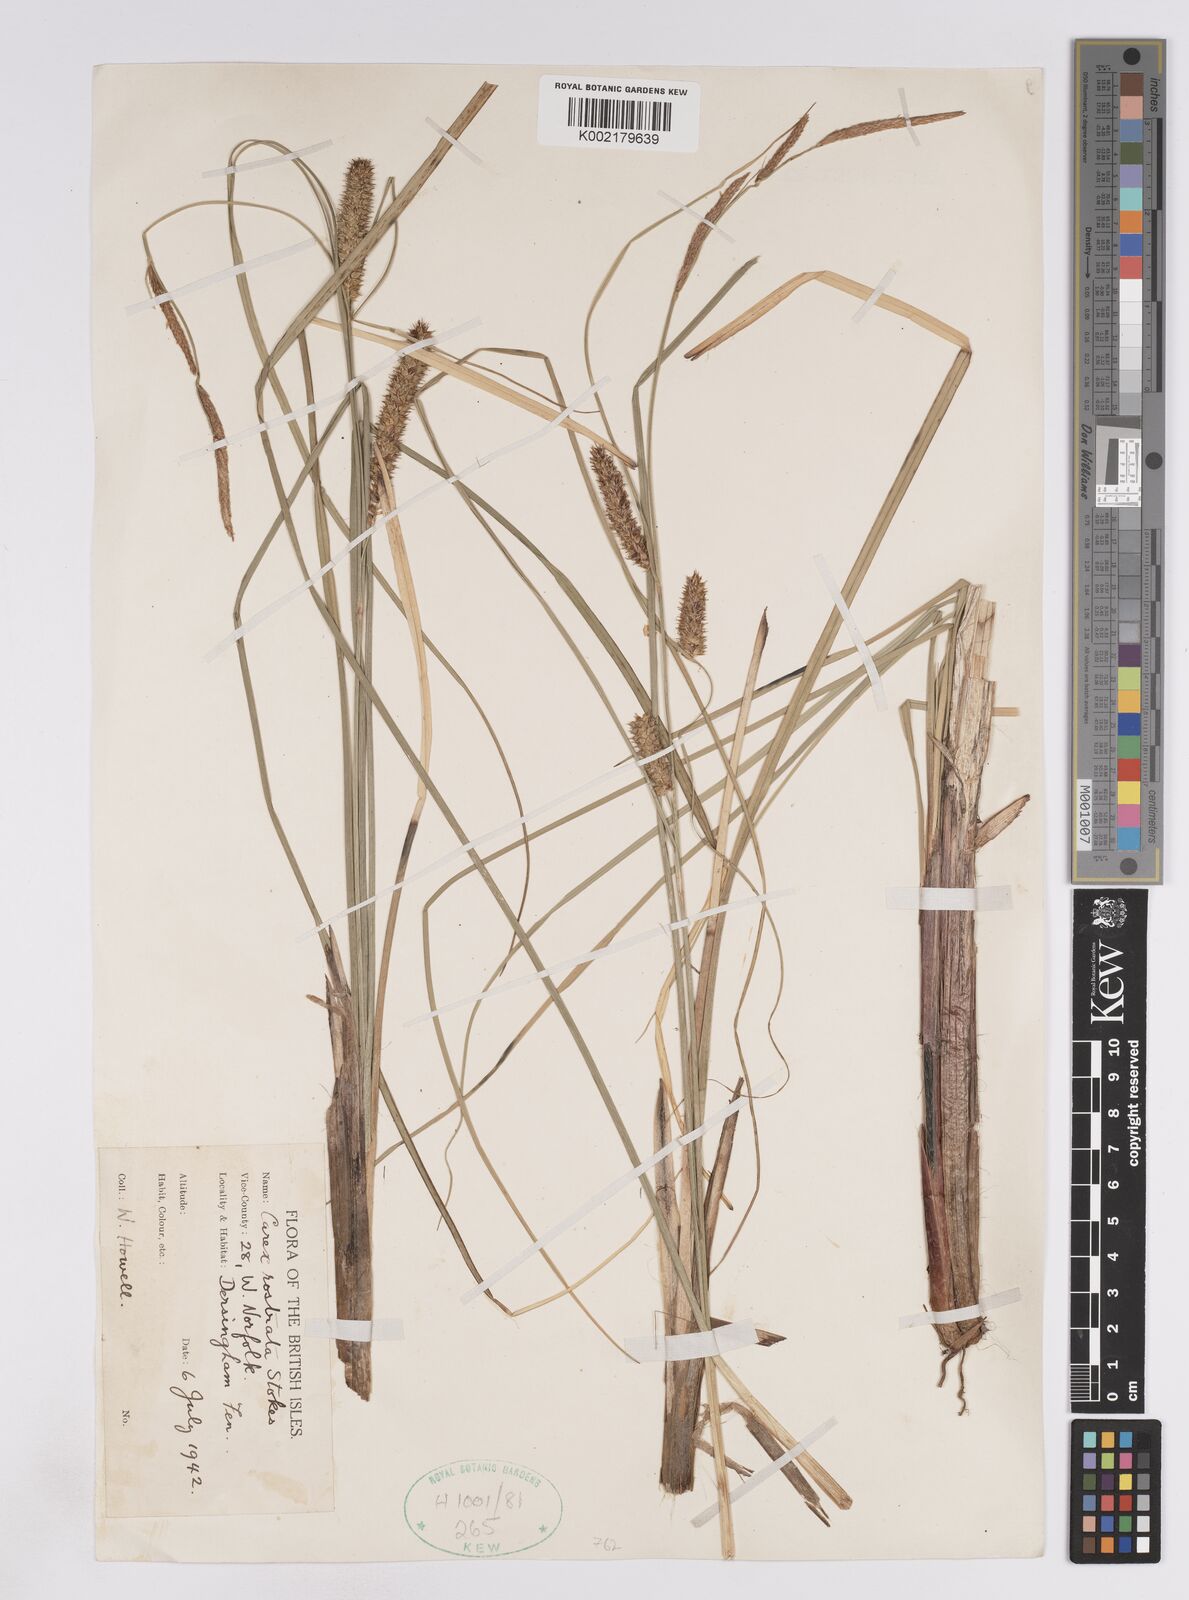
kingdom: Plantae
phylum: Tracheophyta
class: Liliopsida
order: Poales
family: Cyperaceae
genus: Carex
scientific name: Carex rostrata
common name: Bottle sedge
